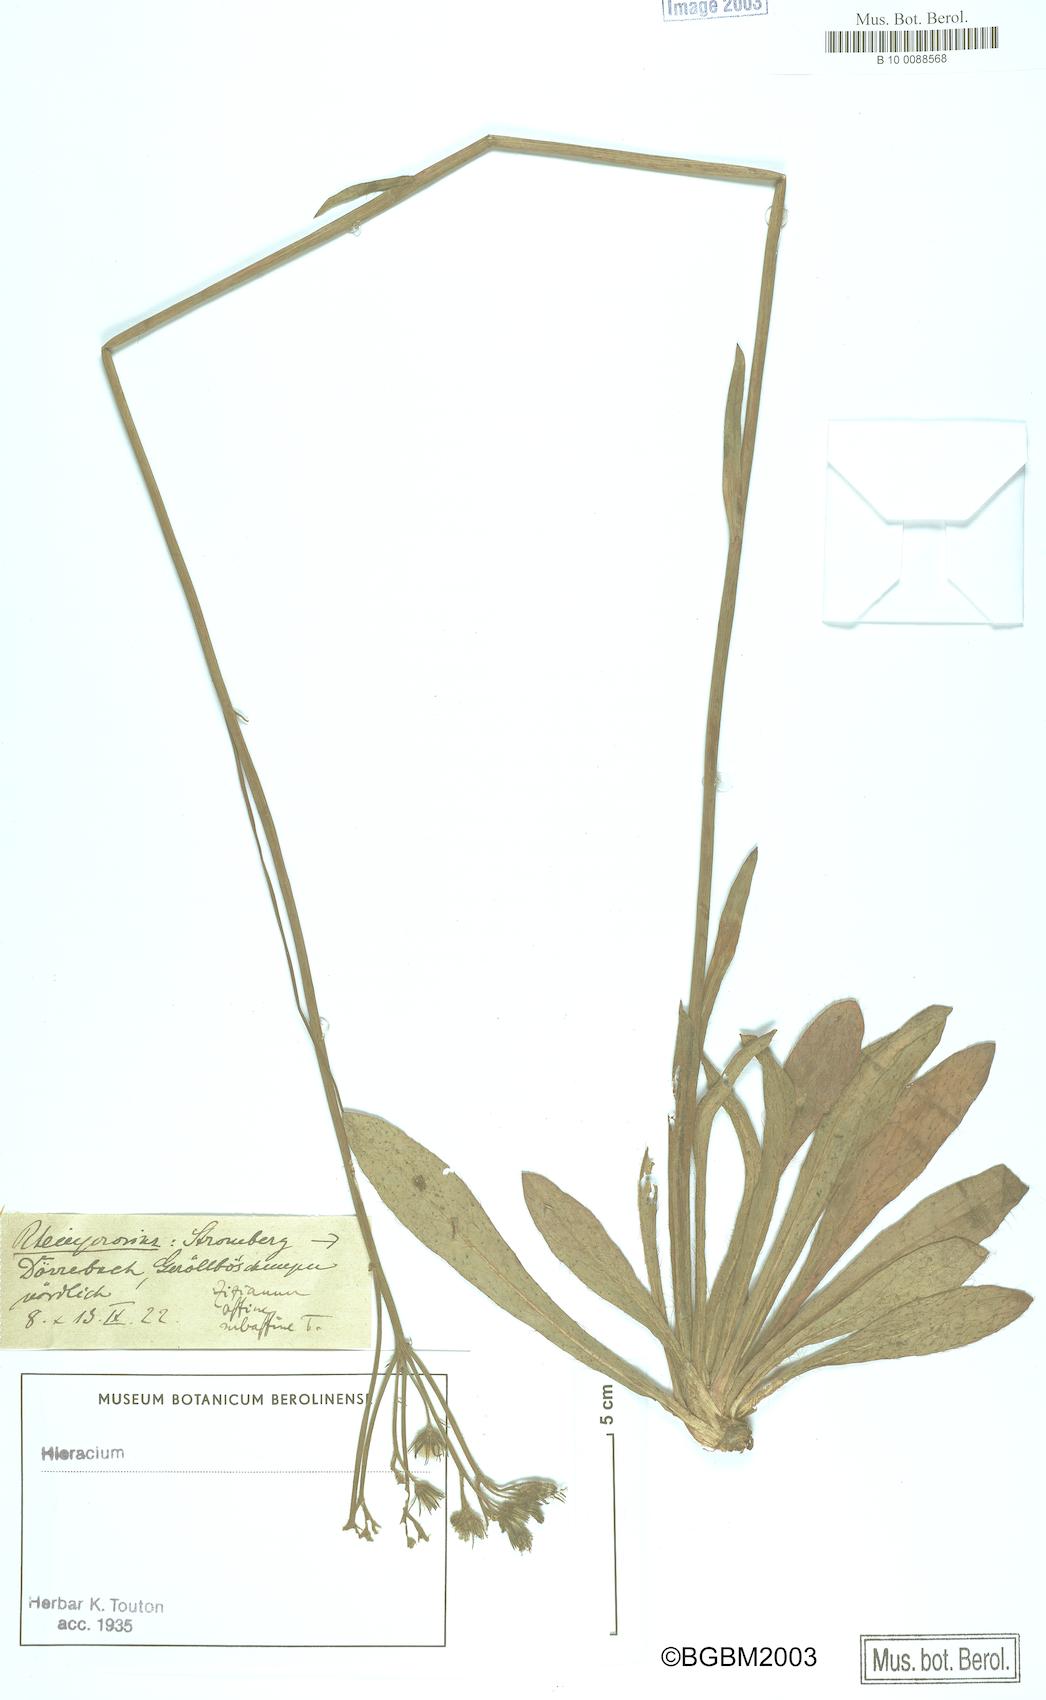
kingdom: Plantae
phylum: Tracheophyta
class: Magnoliopsida
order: Asterales
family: Asteraceae
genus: Pilosella
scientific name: Pilosella ziziana
